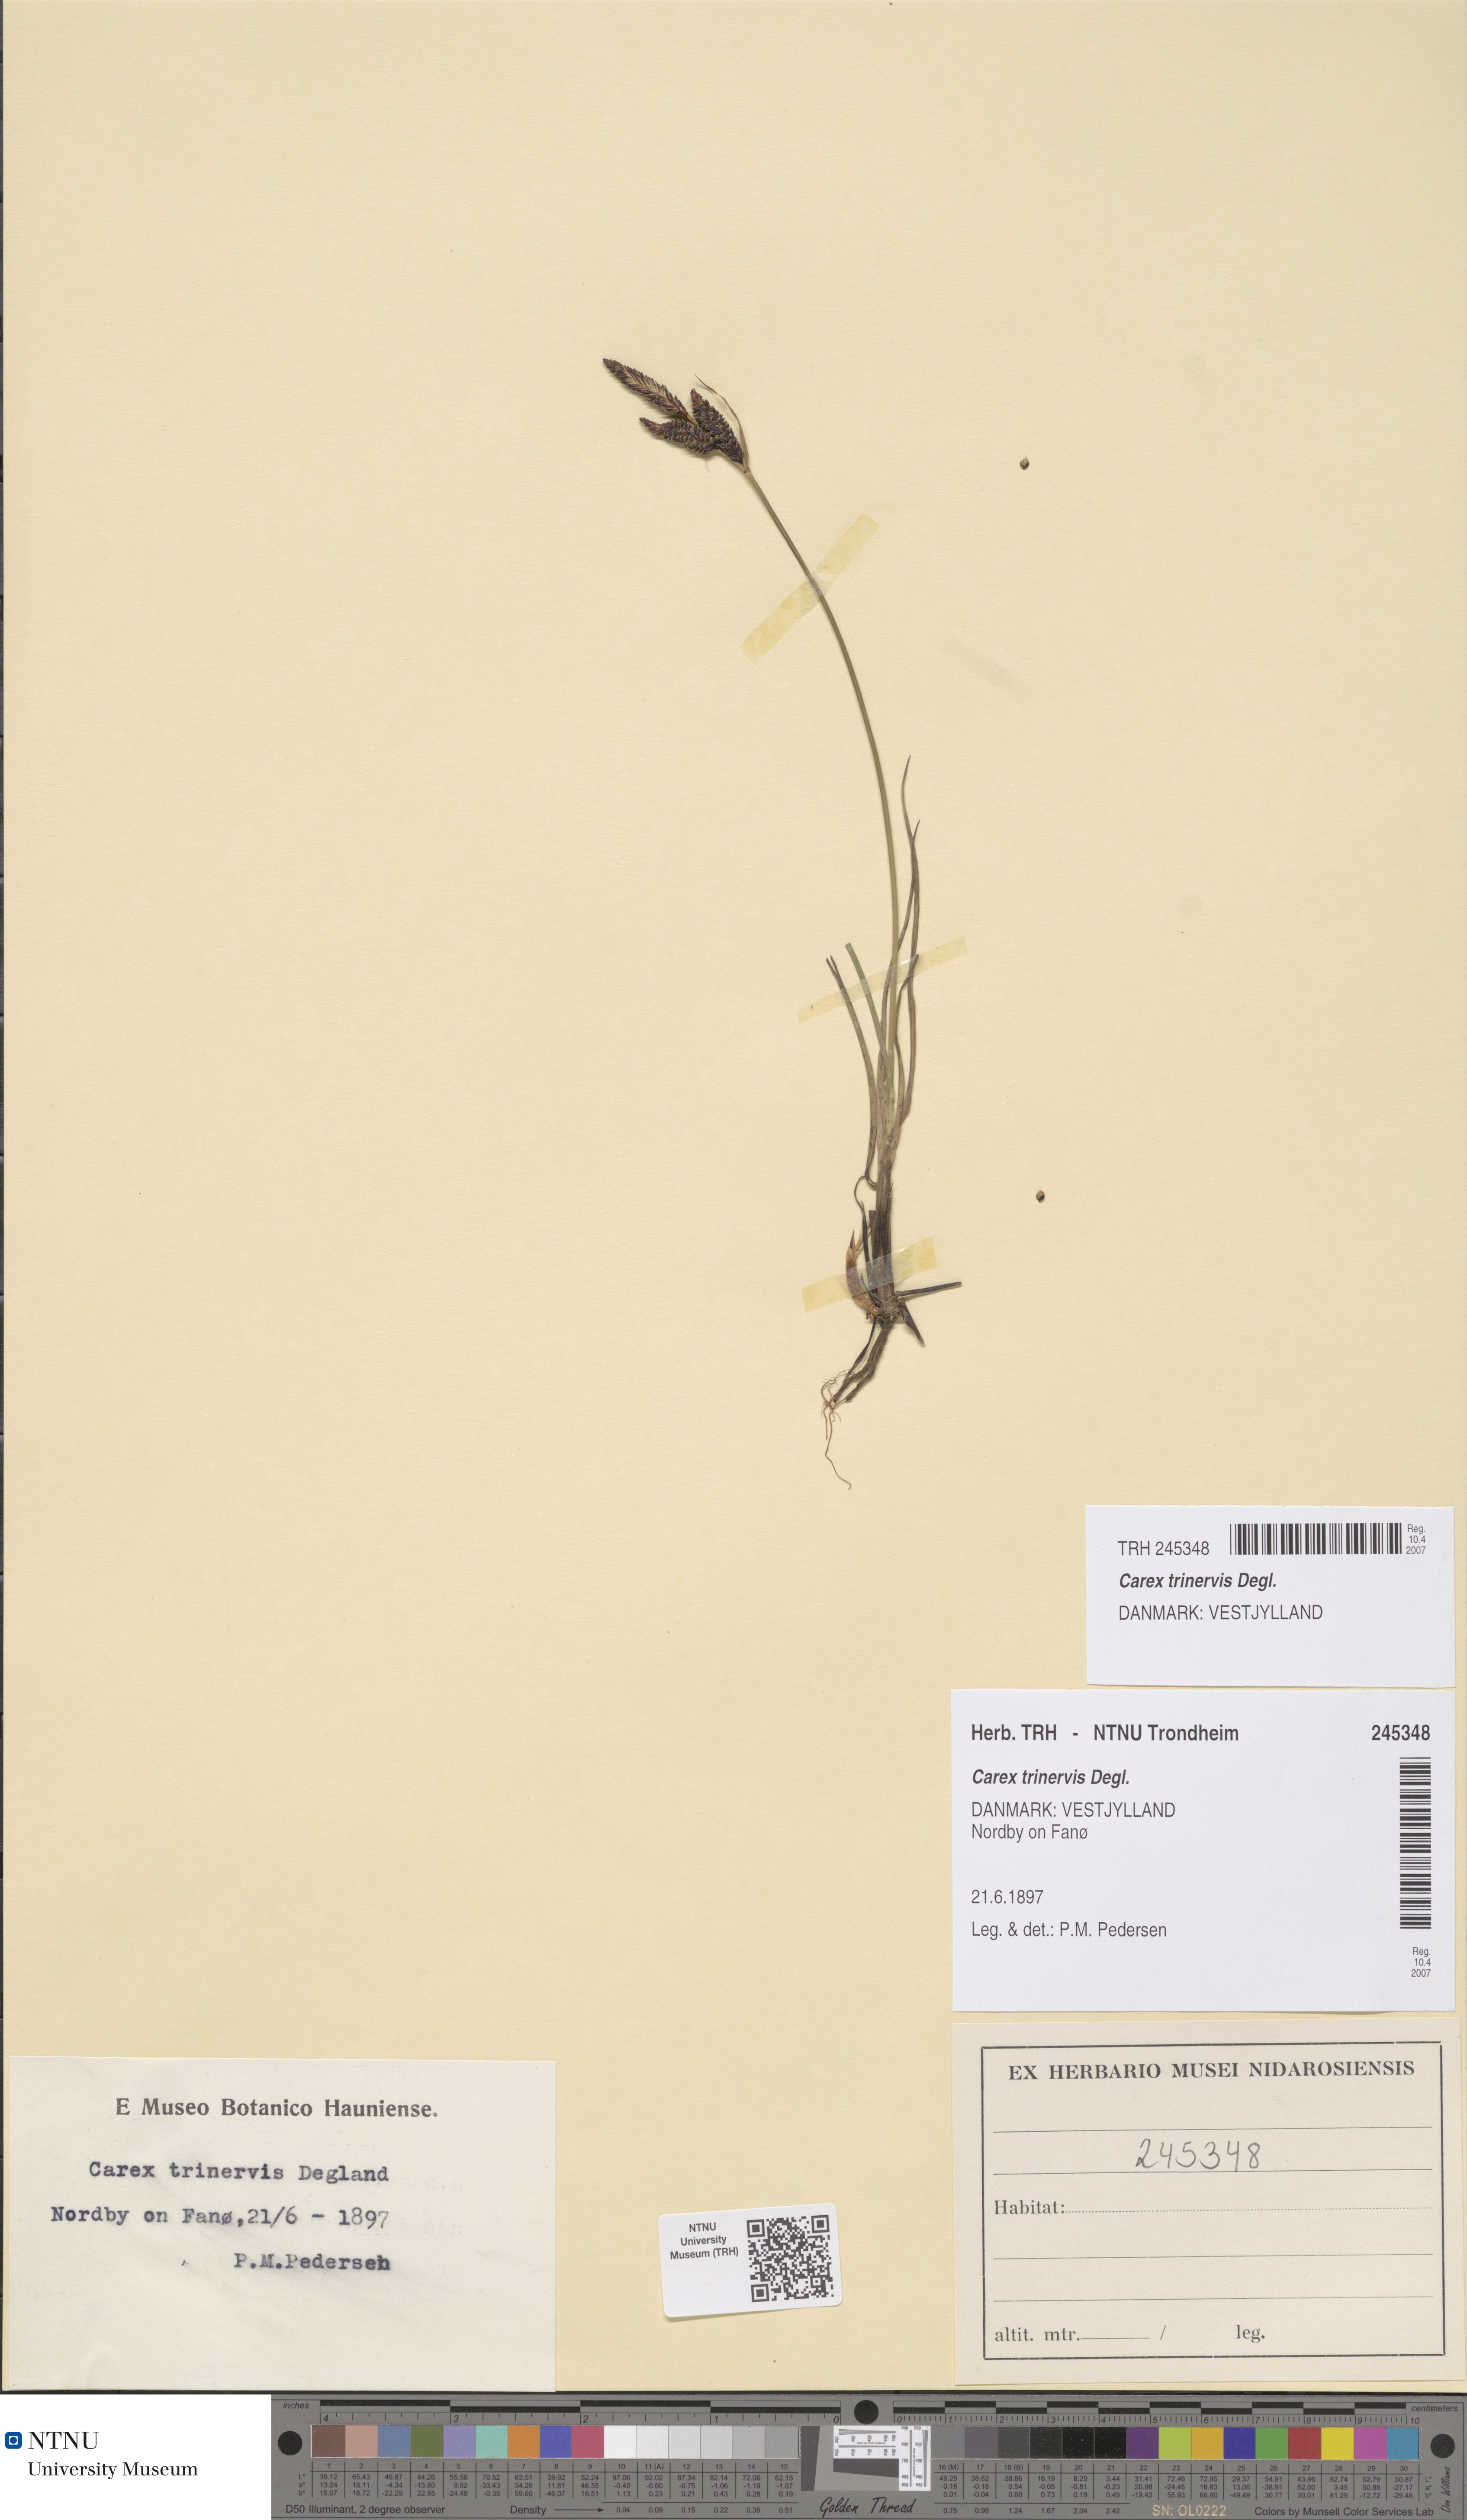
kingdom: Plantae
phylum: Tracheophyta
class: Liliopsida
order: Poales
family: Cyperaceae
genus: Carex
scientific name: Carex trinervis
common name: Three-nerved sedge
